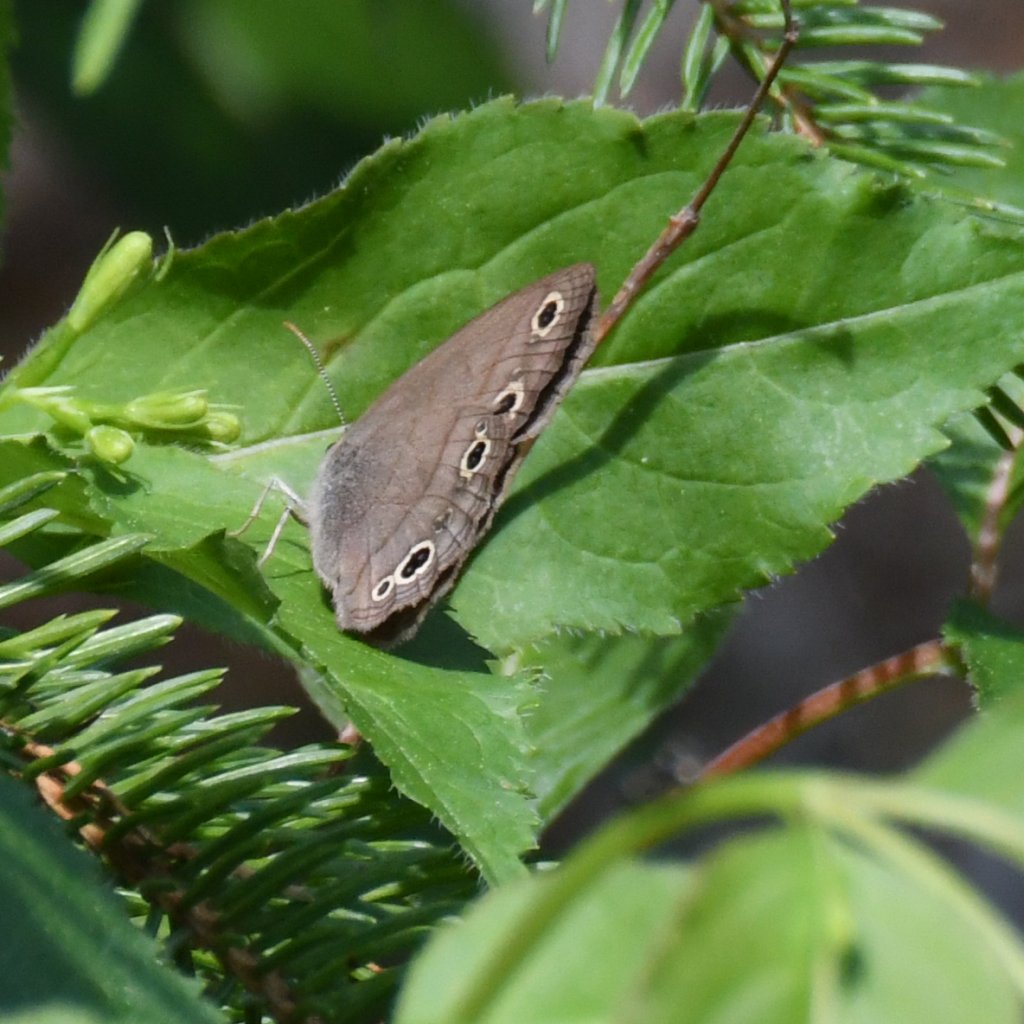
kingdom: Animalia
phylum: Arthropoda
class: Insecta
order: Lepidoptera
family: Nymphalidae
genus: Euptychia
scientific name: Euptychia cymela
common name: Little Wood Satyr
